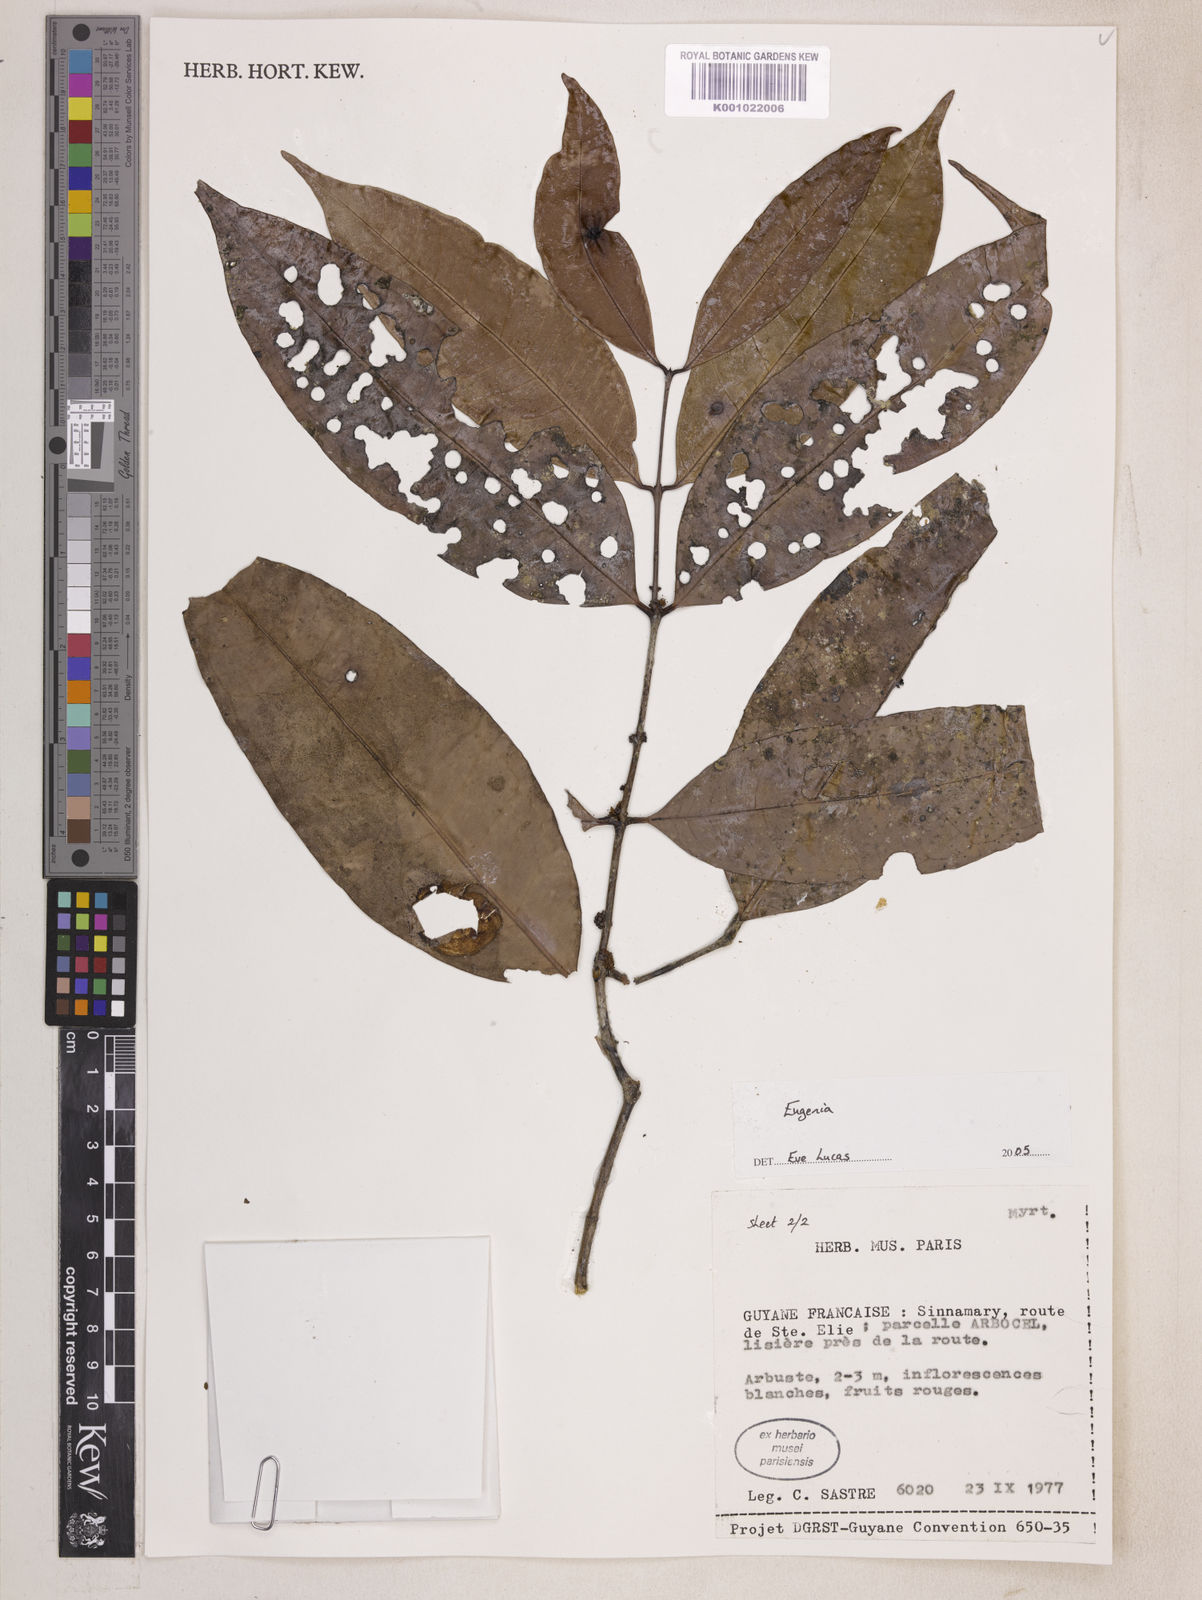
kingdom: Plantae
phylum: Tracheophyta
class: Magnoliopsida
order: Myrtales
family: Myrtaceae
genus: Eugenia
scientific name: Eugenia
